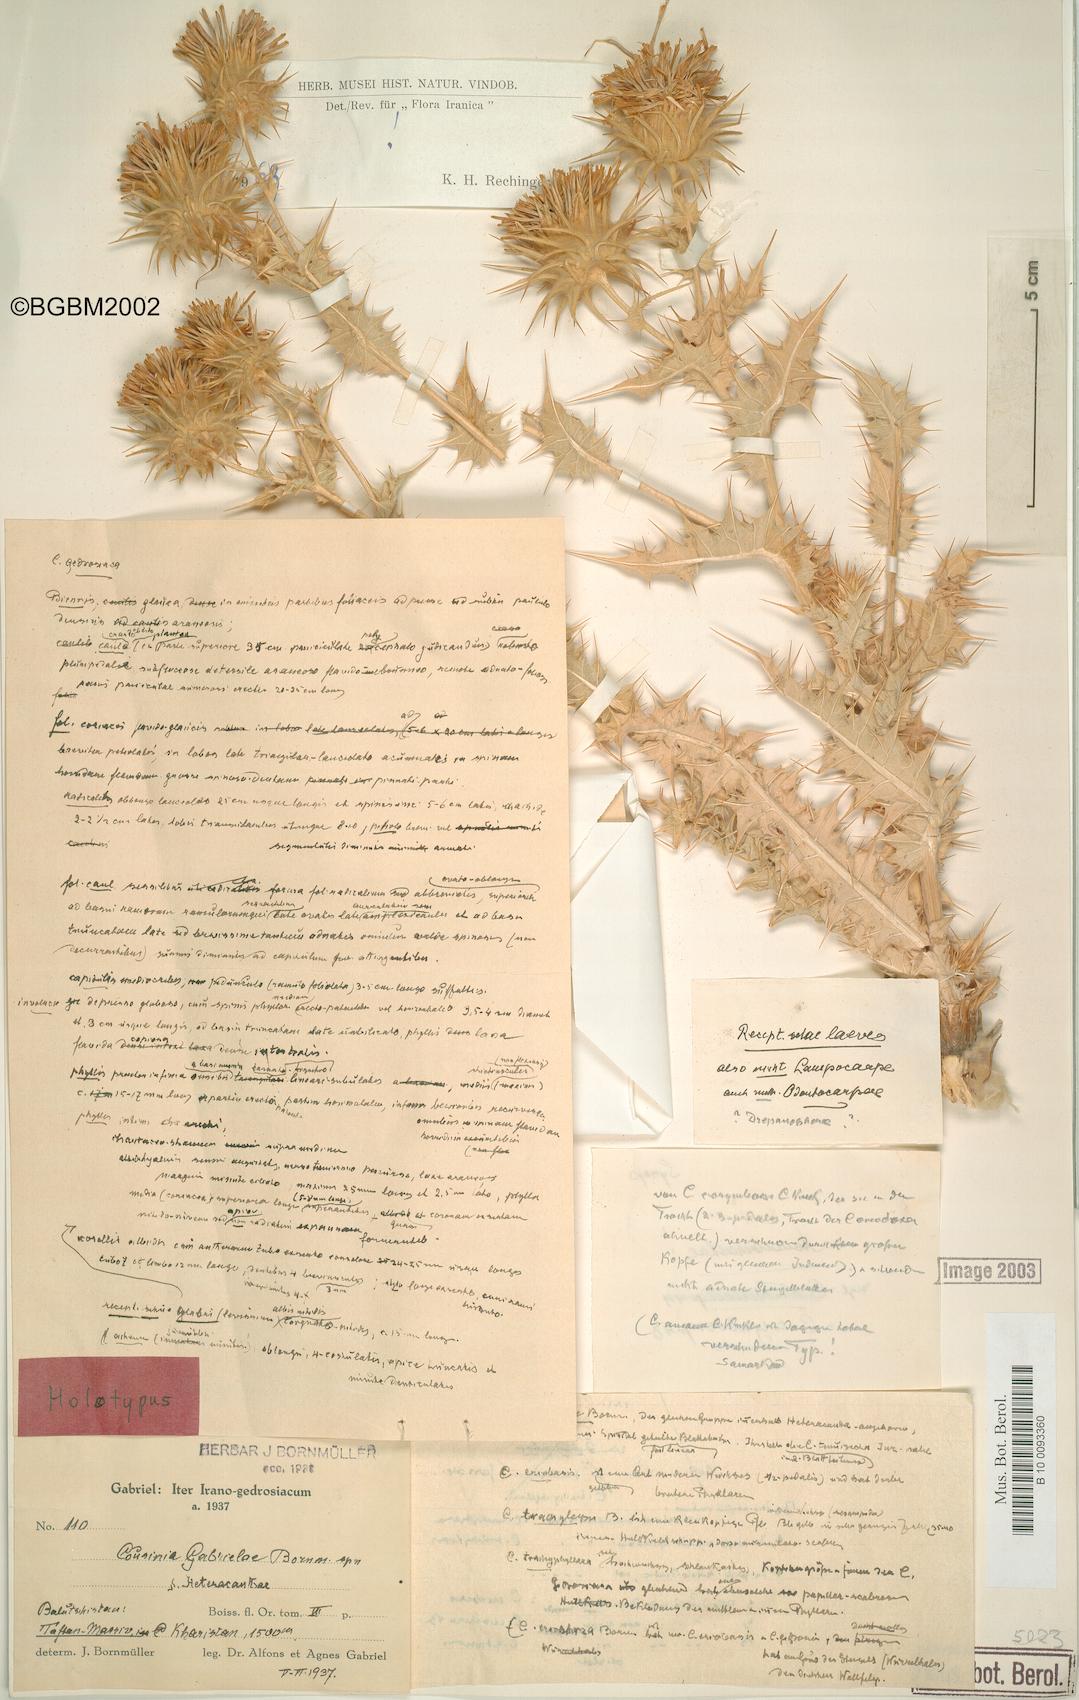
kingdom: Plantae
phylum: Tracheophyta
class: Magnoliopsida
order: Asterales
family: Asteraceae
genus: Cousinia
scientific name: Cousinia gabrielae
